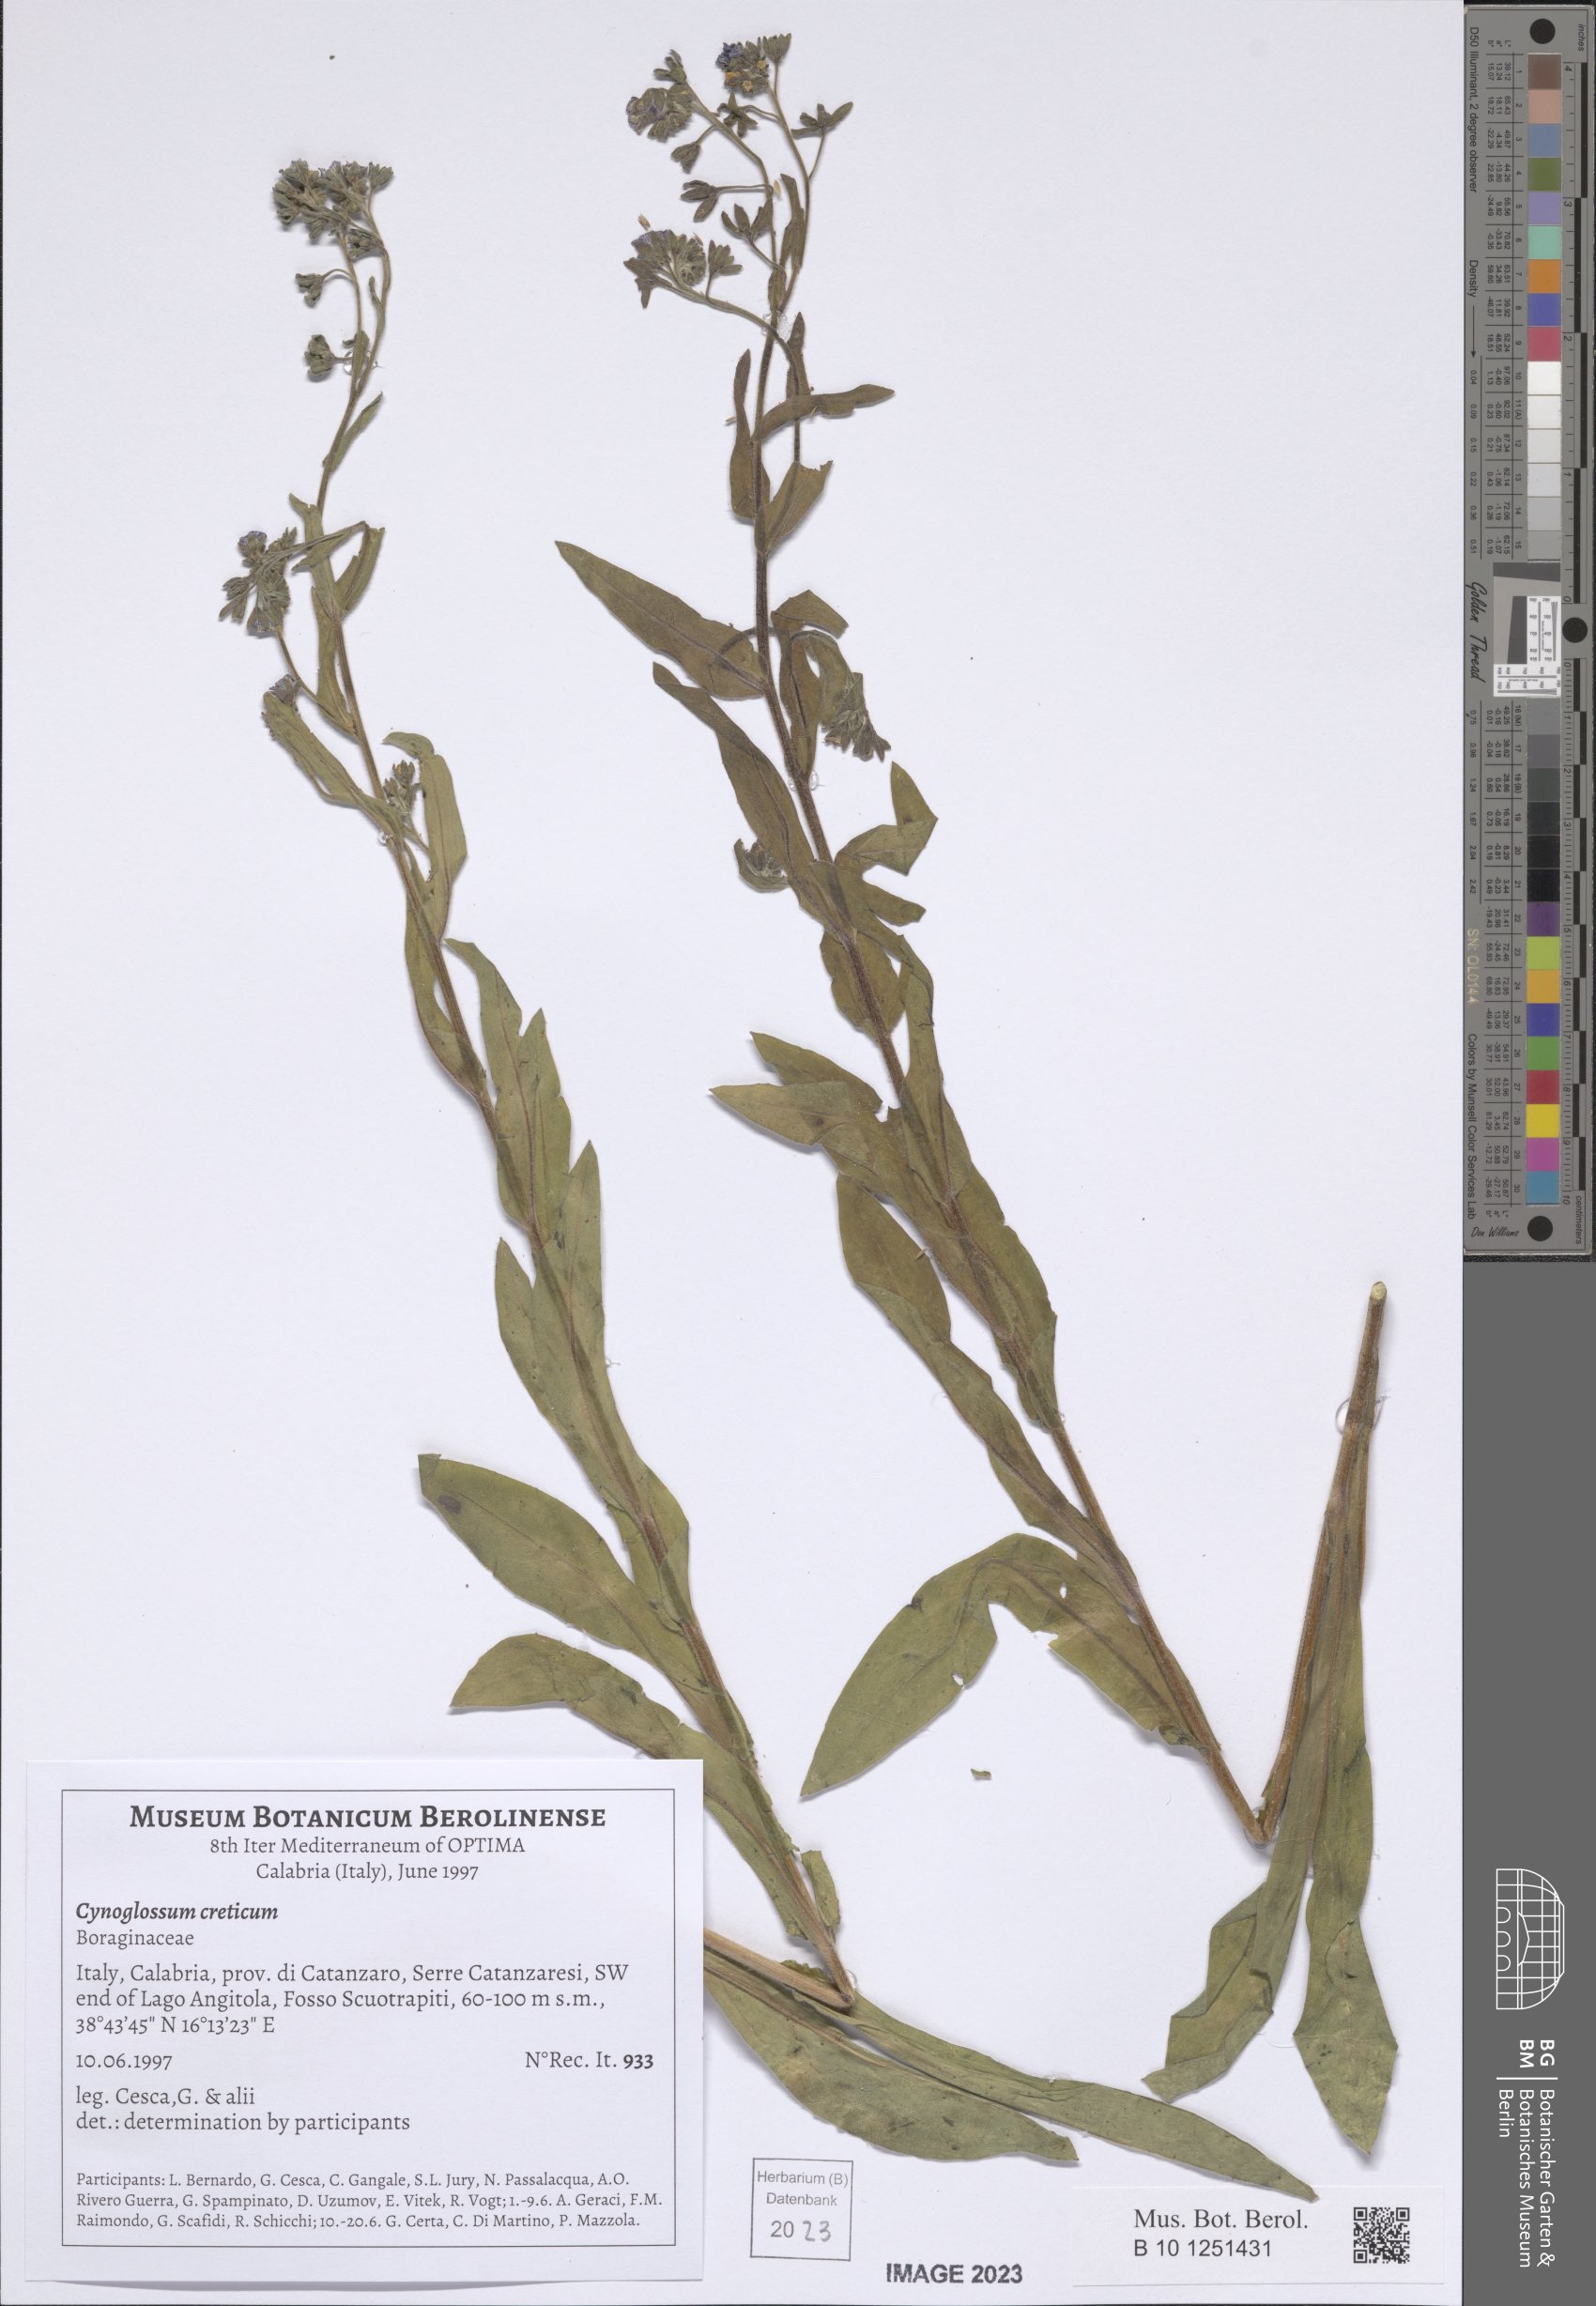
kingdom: Plantae
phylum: Tracheophyta
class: Magnoliopsida
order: Boraginales
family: Boraginaceae
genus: Cynoglossum
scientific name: Cynoglossum creticum
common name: Blue hound's tongue
